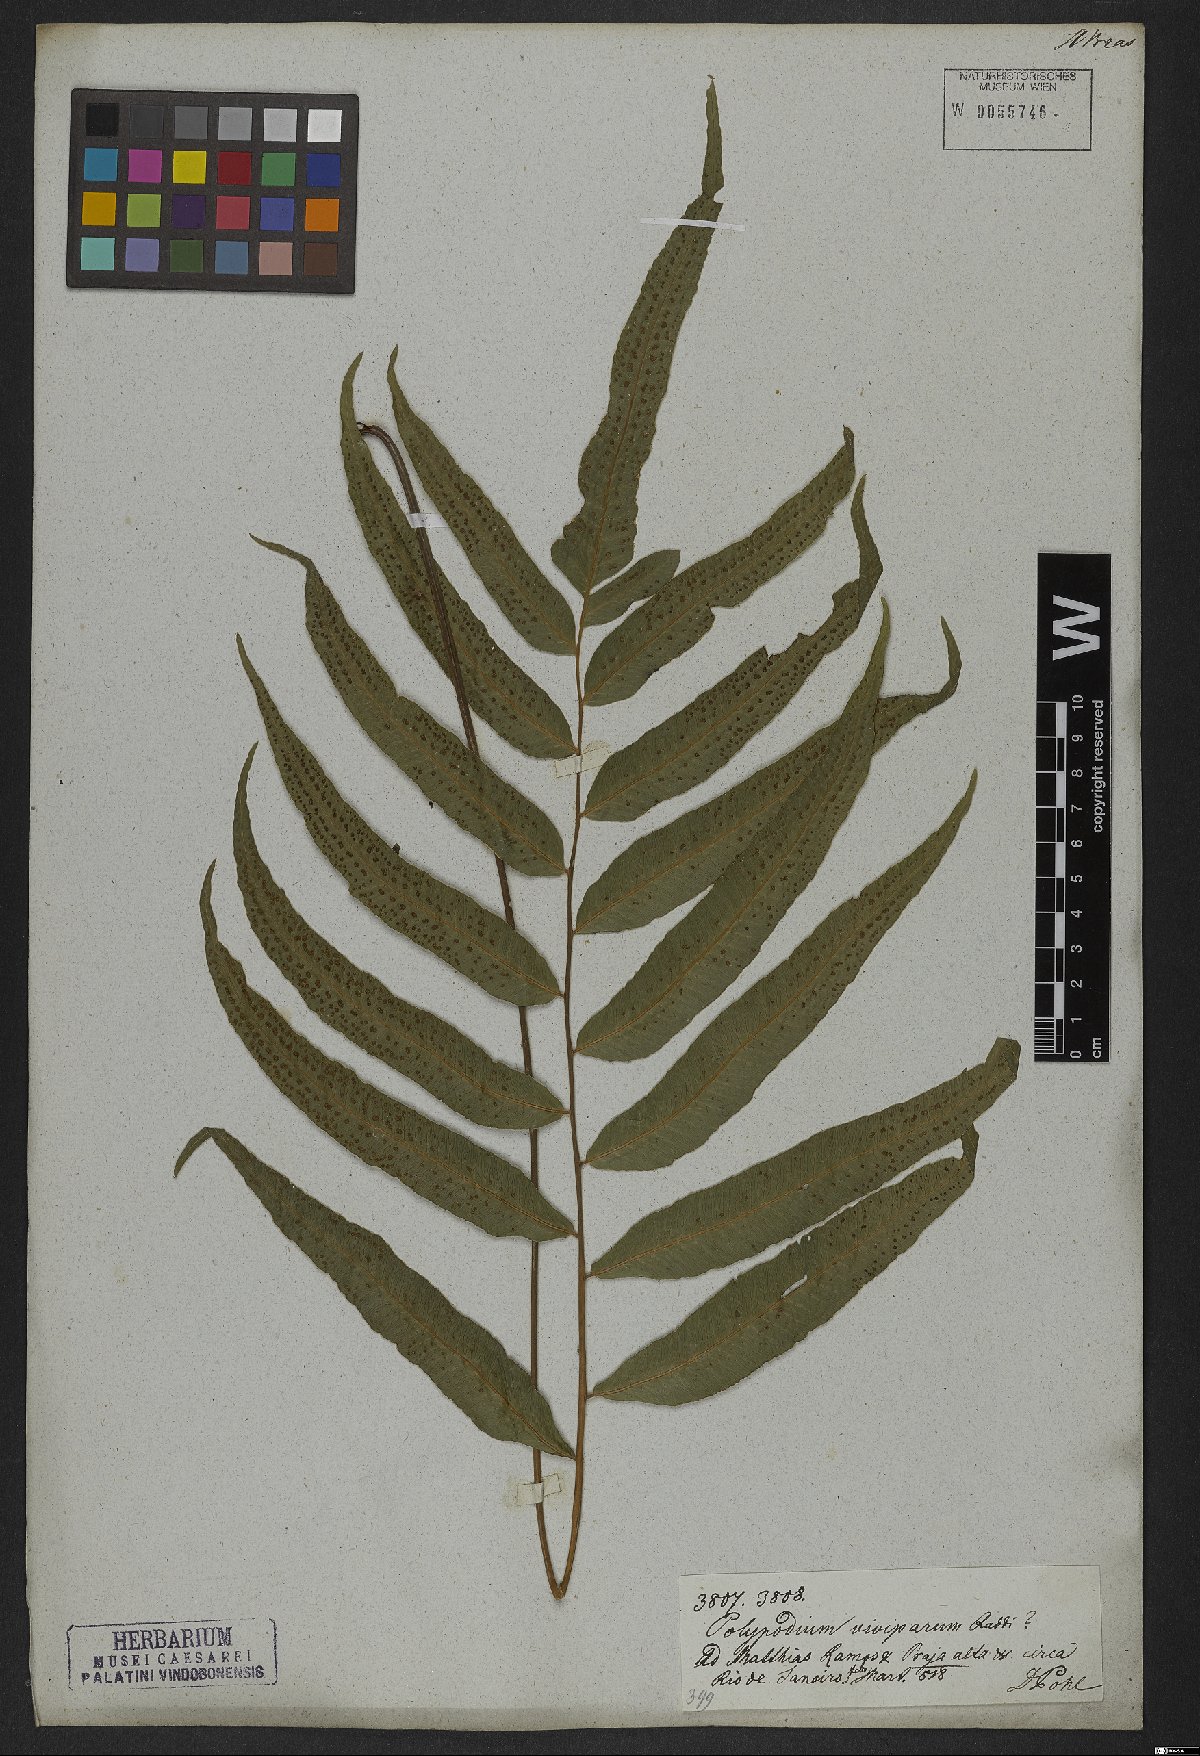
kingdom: Plantae
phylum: Tracheophyta
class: Polypodiopsida
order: Polypodiales
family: Thelypteridaceae
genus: Goniopteris
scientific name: Goniopteris vivipara
